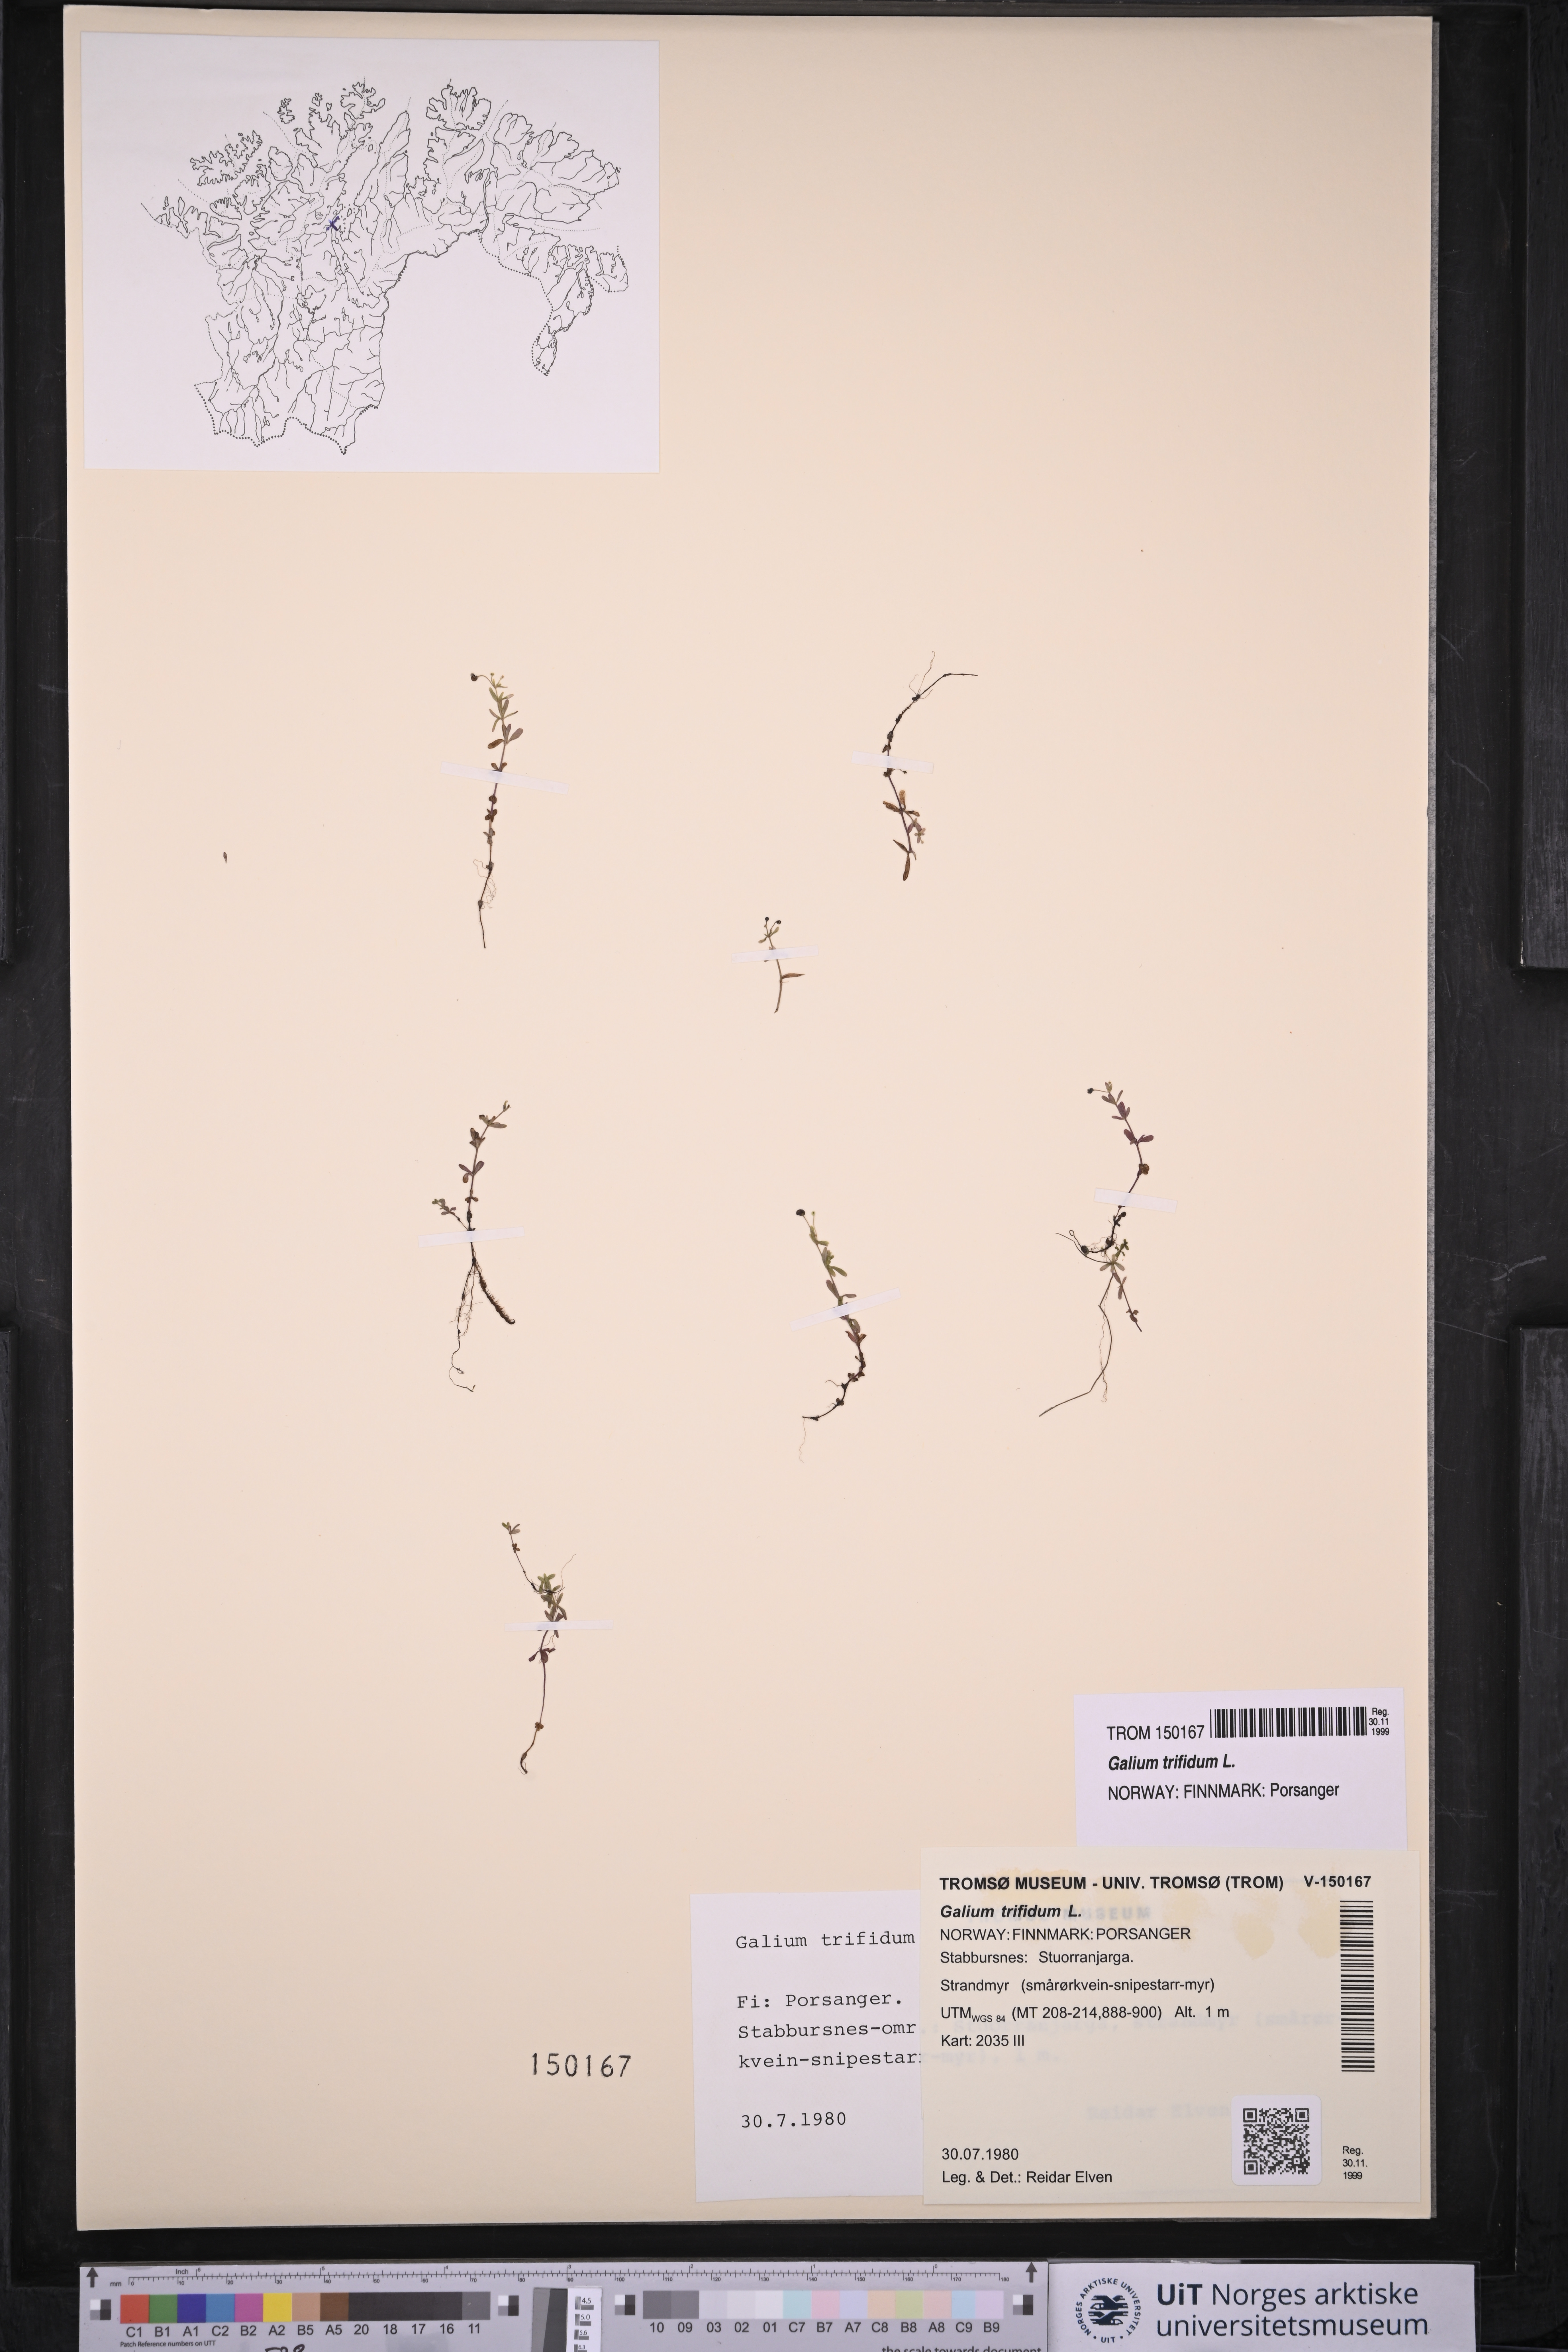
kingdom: Plantae
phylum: Tracheophyta
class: Magnoliopsida
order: Gentianales
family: Rubiaceae
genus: Galium
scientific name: Galium trifidum
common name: Small bedstraw
